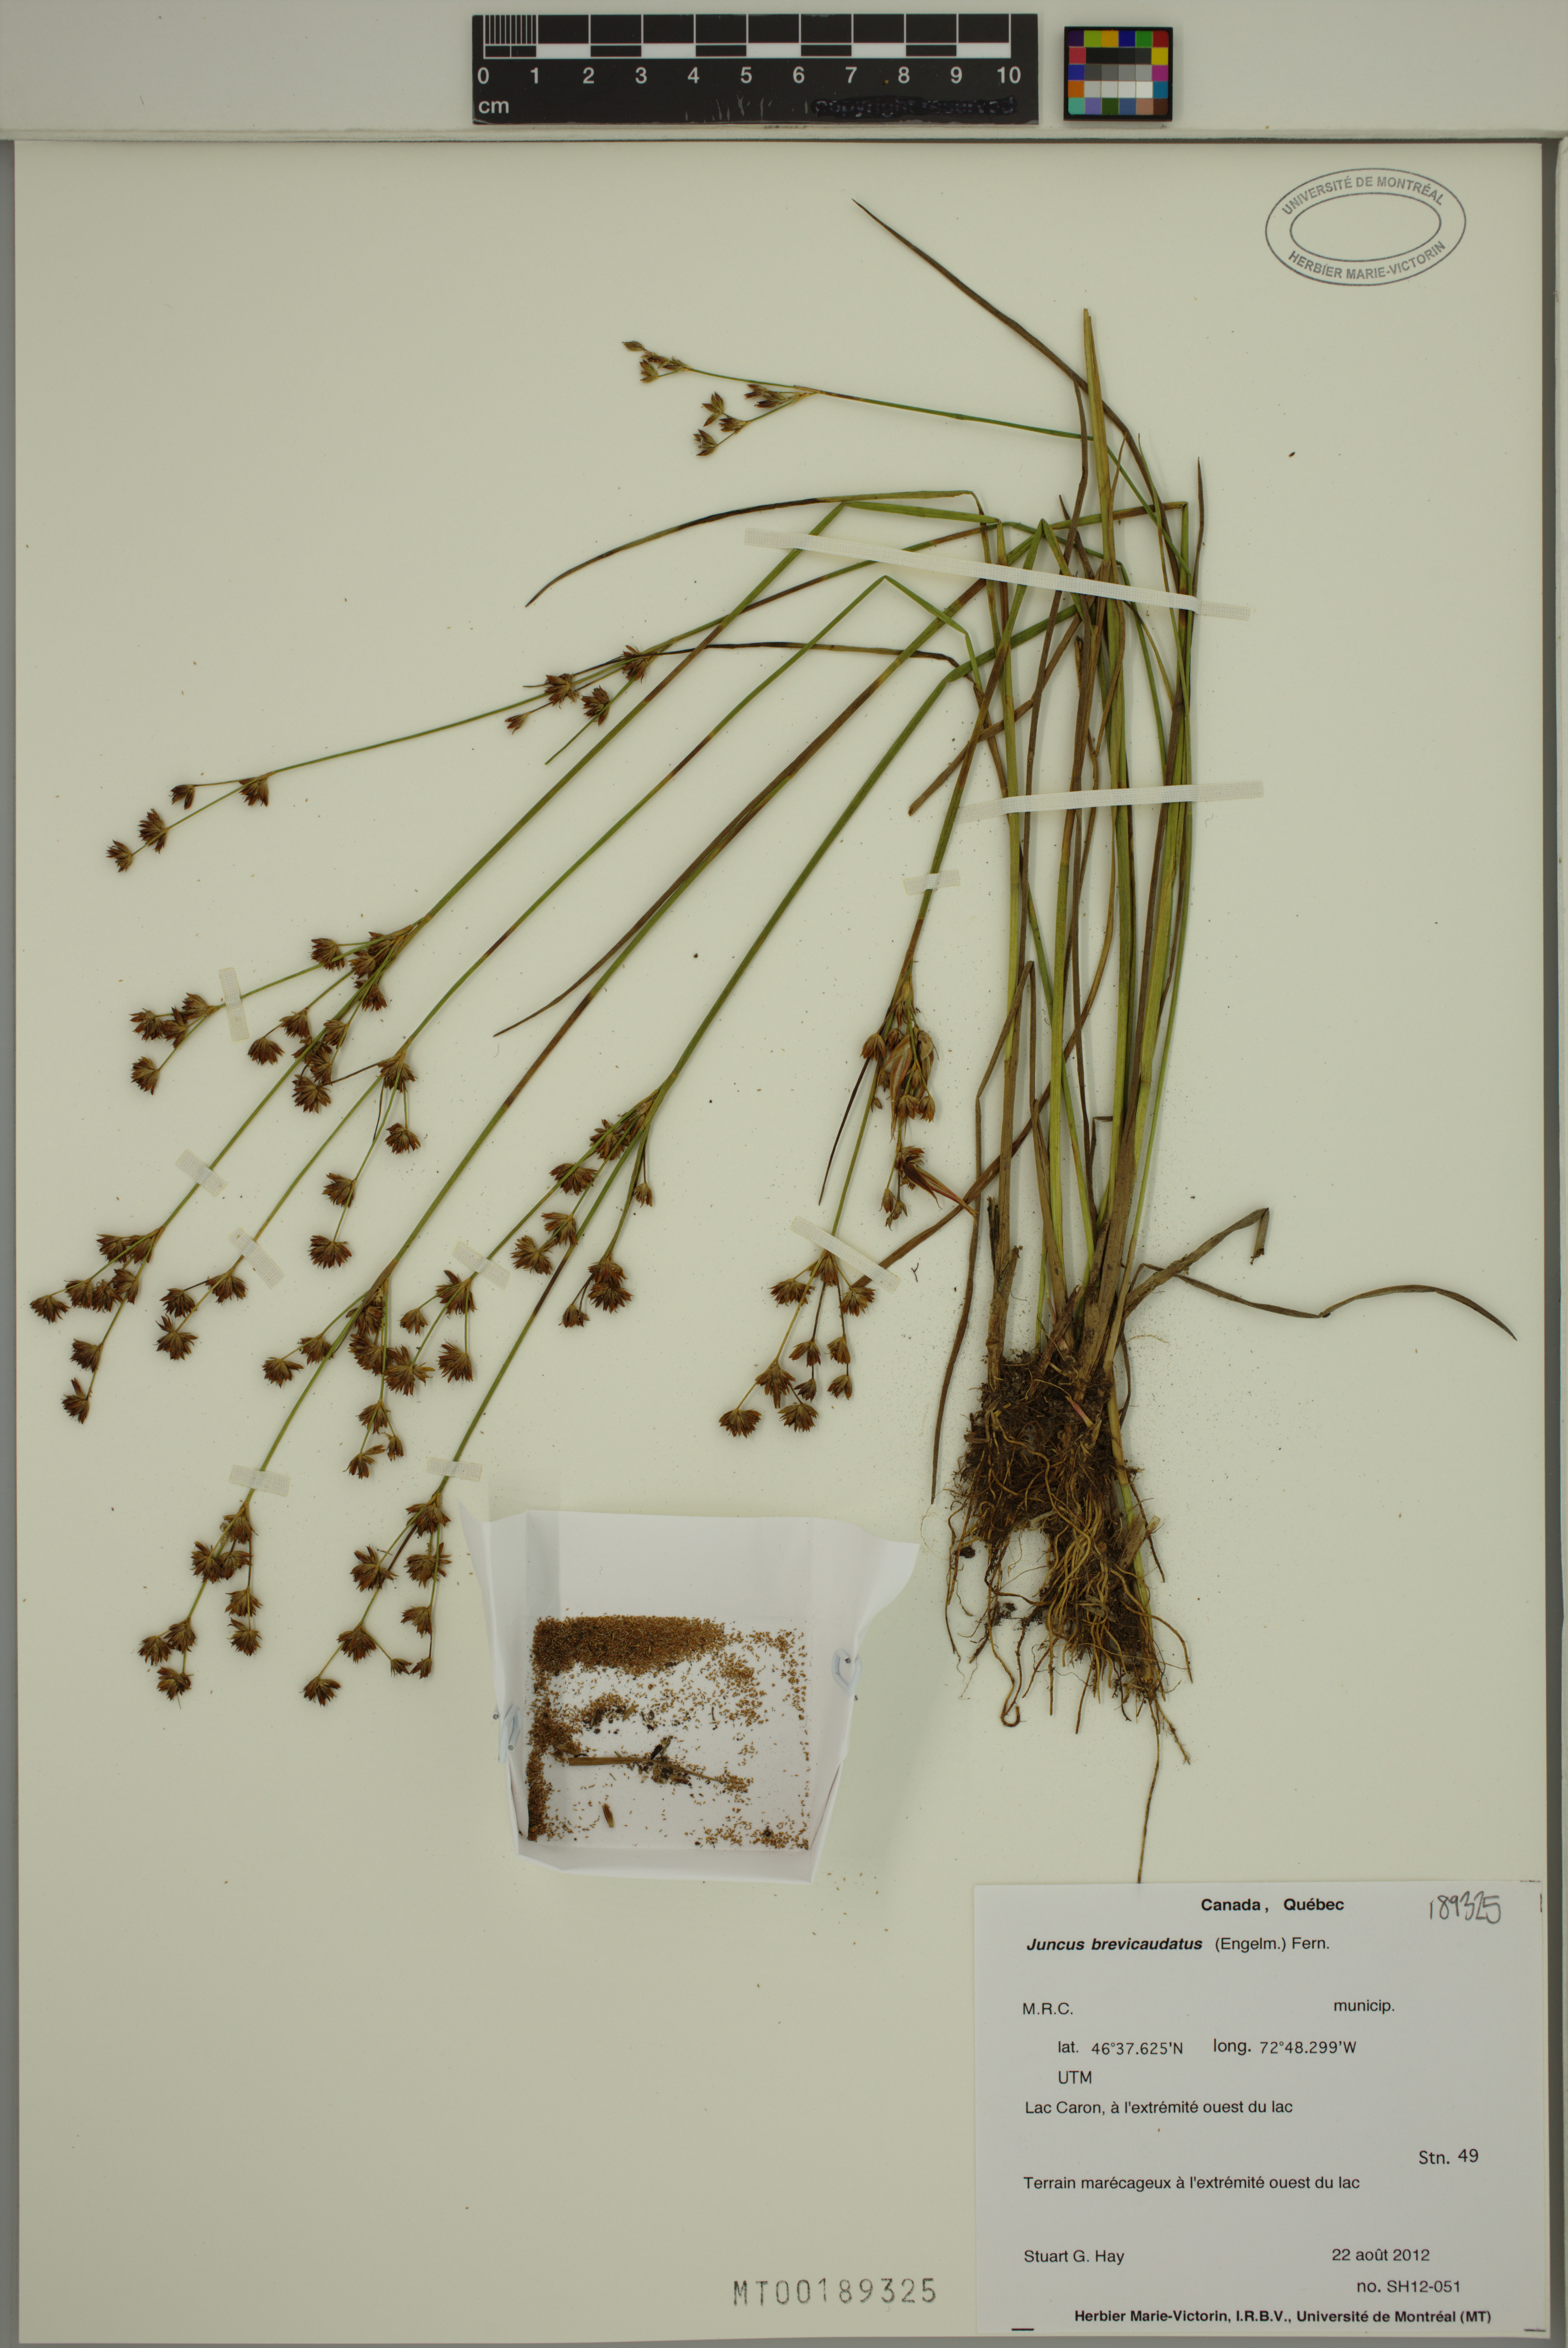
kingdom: Plantae
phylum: Tracheophyta
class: Liliopsida
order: Poales
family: Juncaceae
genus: Juncus
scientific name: Juncus brevicaudatus
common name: Narrow-panicle rush
